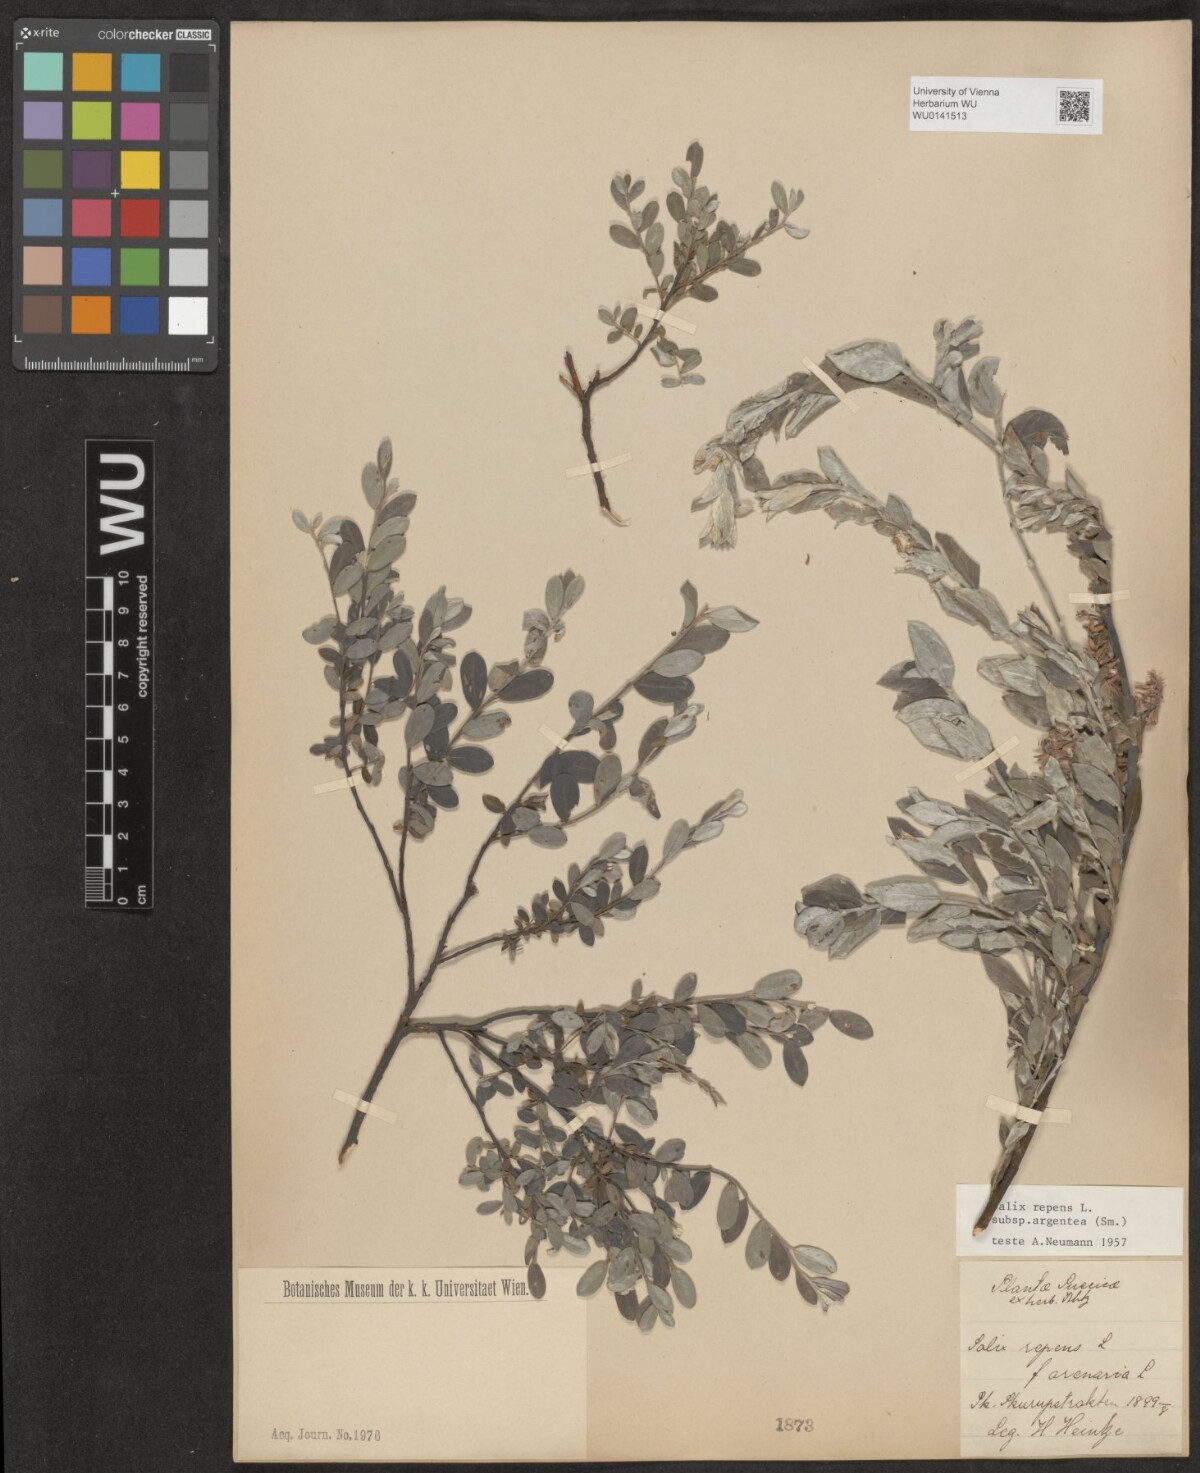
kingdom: Plantae
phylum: Tracheophyta
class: Magnoliopsida
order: Malpighiales
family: Salicaceae
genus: Salix
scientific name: Salix repens
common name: Creeping willow
